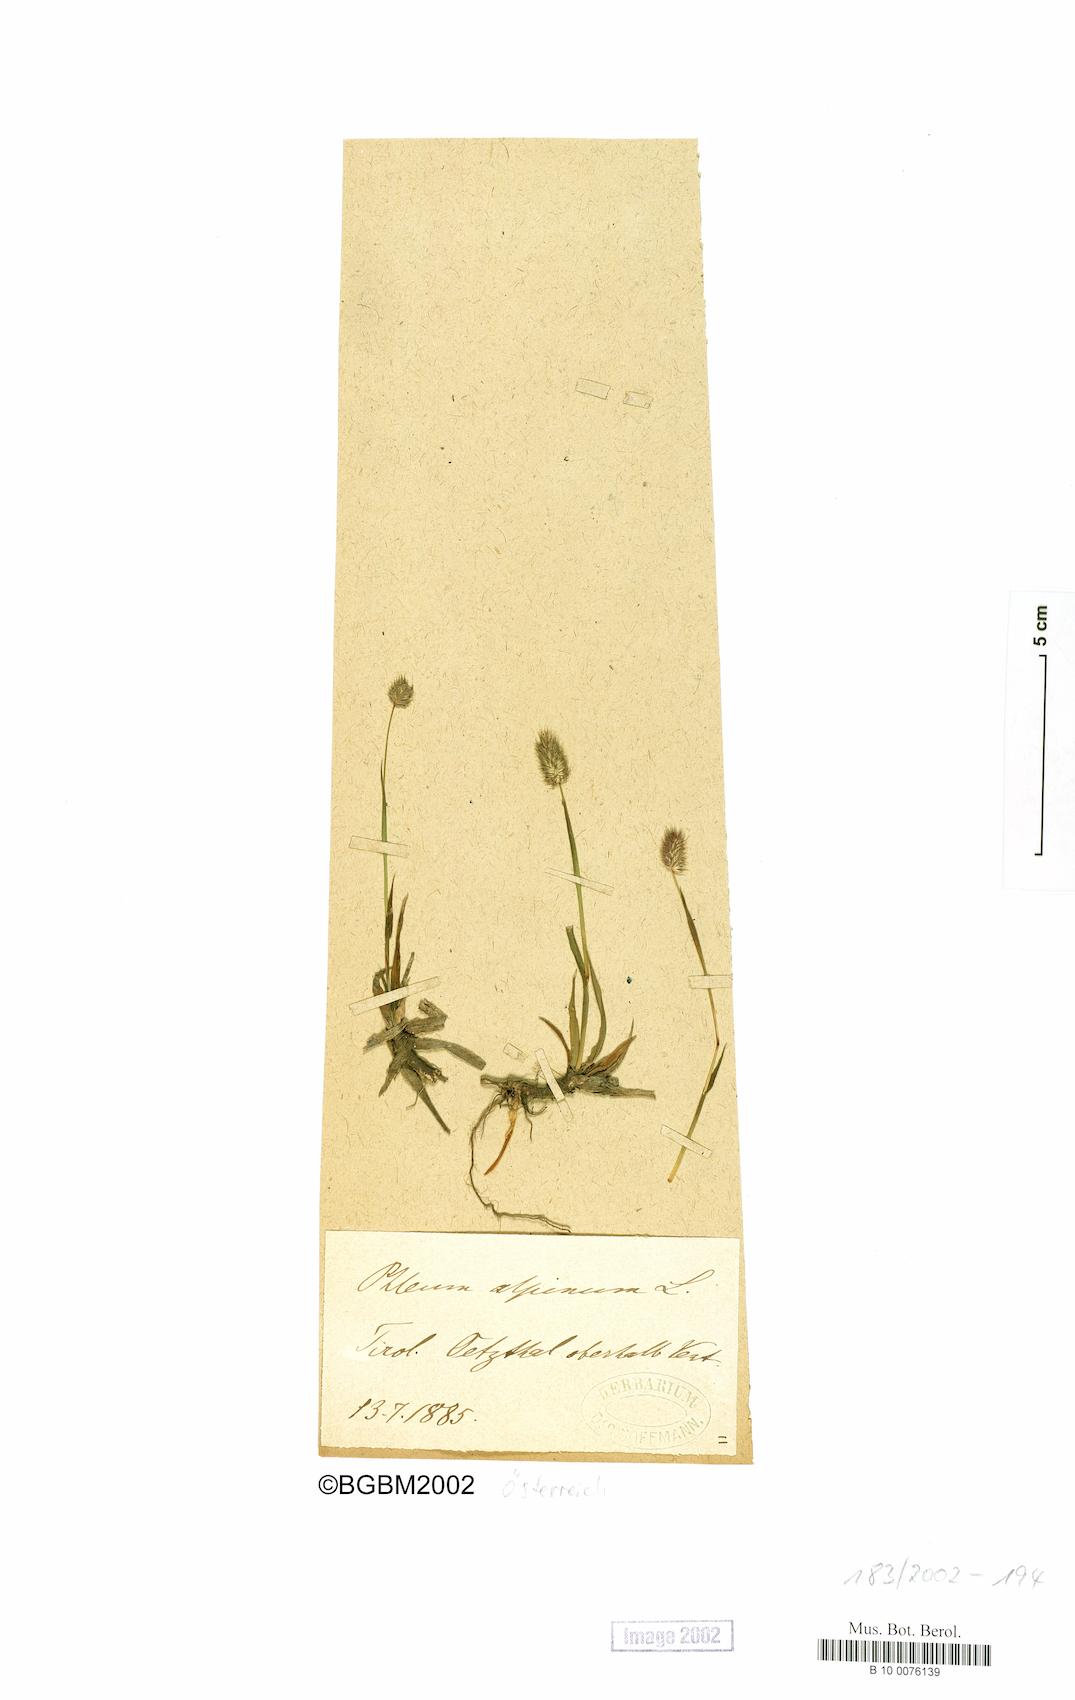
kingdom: Plantae
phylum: Tracheophyta
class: Liliopsida
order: Poales
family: Poaceae
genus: Phleum
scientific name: Phleum alpinum
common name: Alpine cat's-tail
